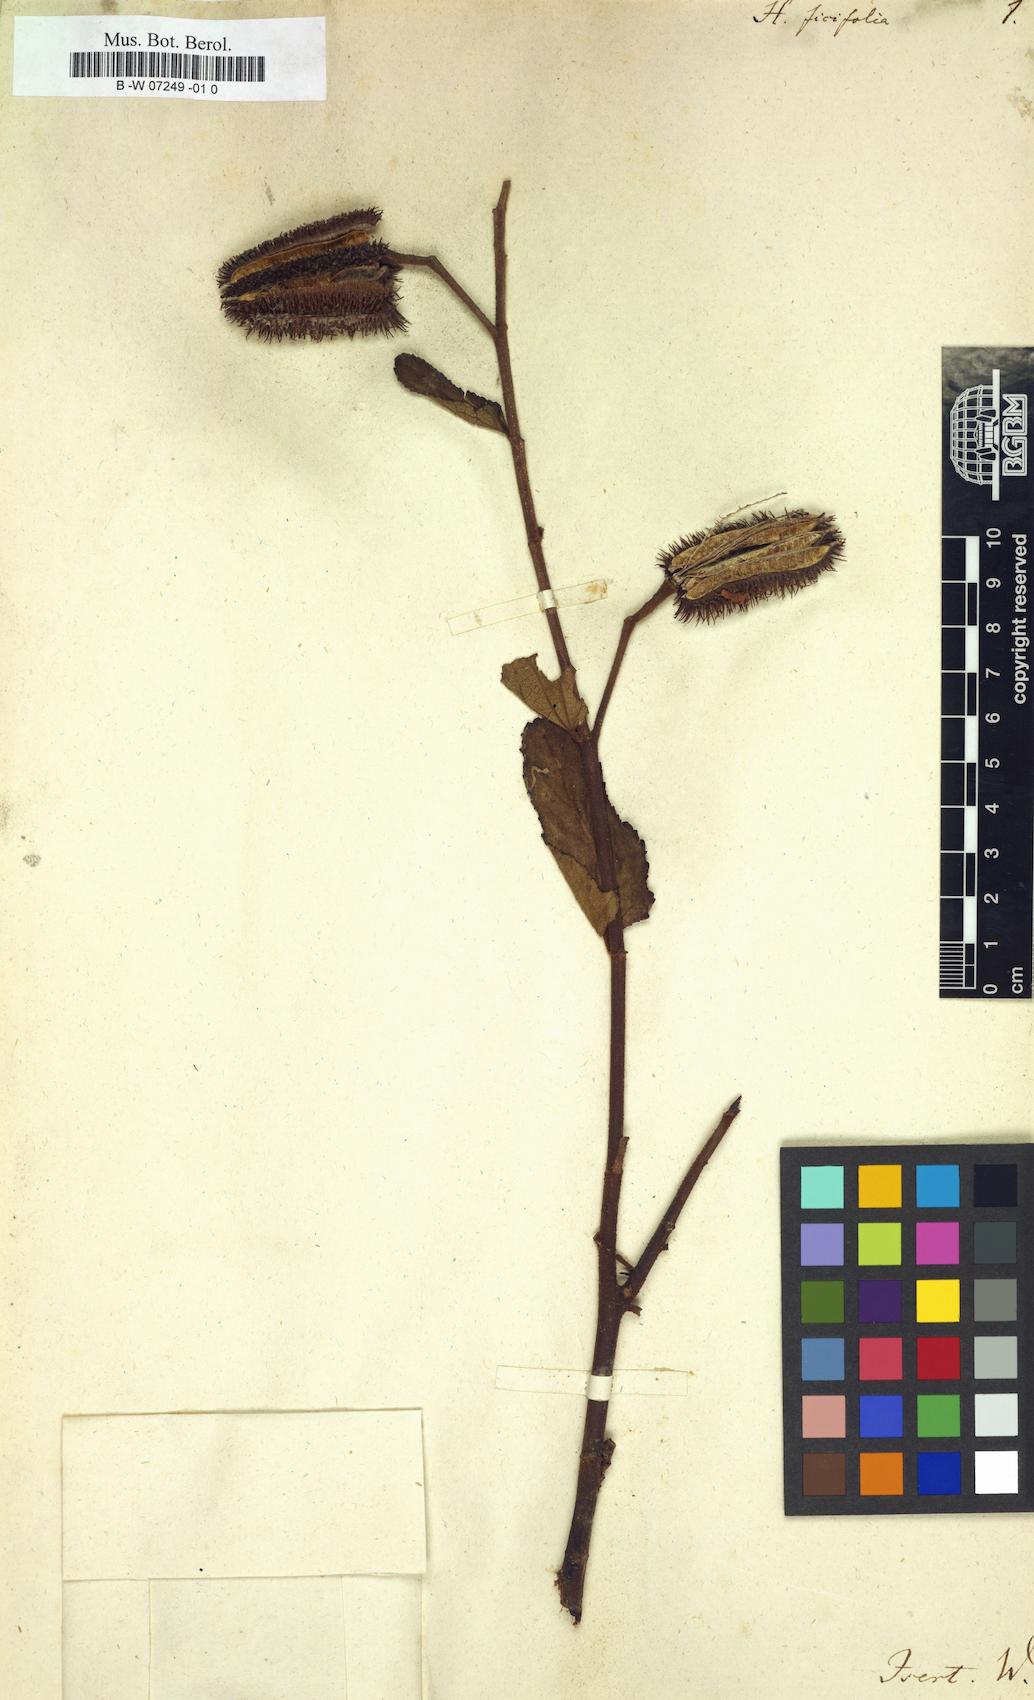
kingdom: Plantae
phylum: Tracheophyta
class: Magnoliopsida
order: Malvales
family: Malvaceae
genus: Clappertonia
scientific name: Clappertonia ficifolia
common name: Bolo-bolo
